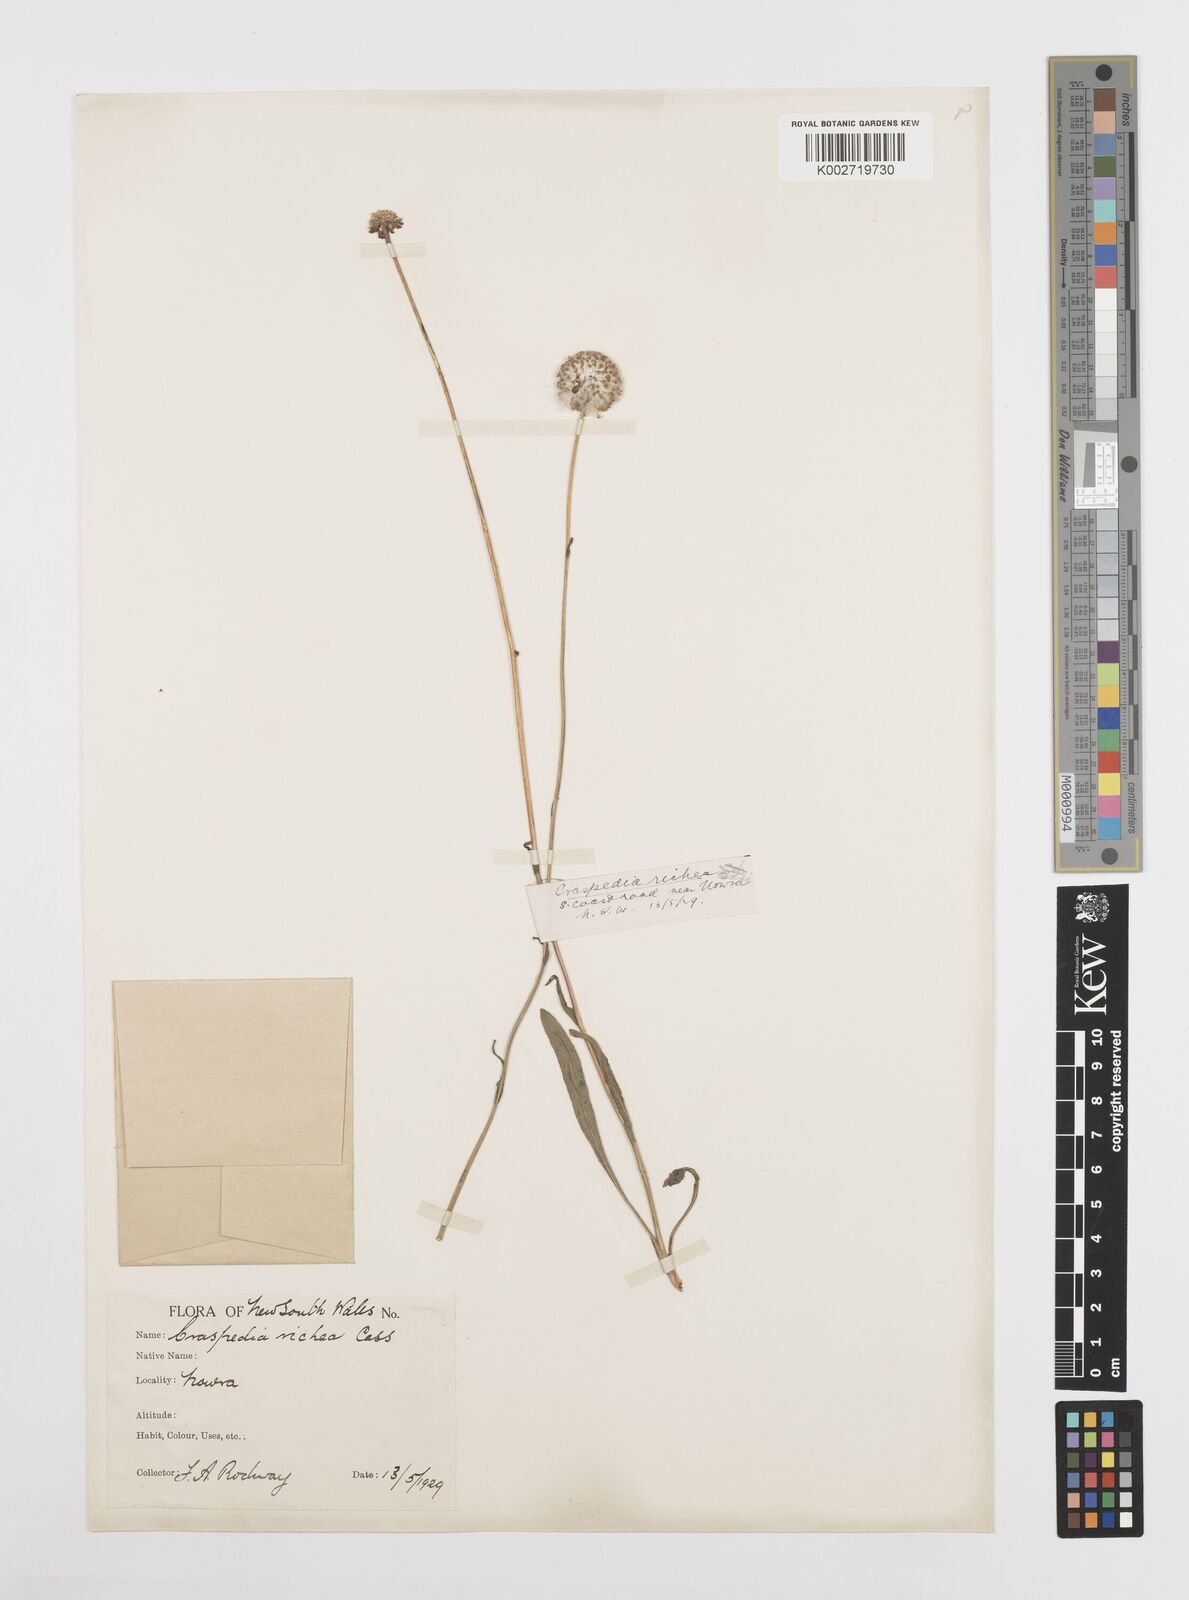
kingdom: Plantae
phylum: Tracheophyta
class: Magnoliopsida
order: Asterales
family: Asteraceae
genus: Craspedia
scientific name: Craspedia glauca
